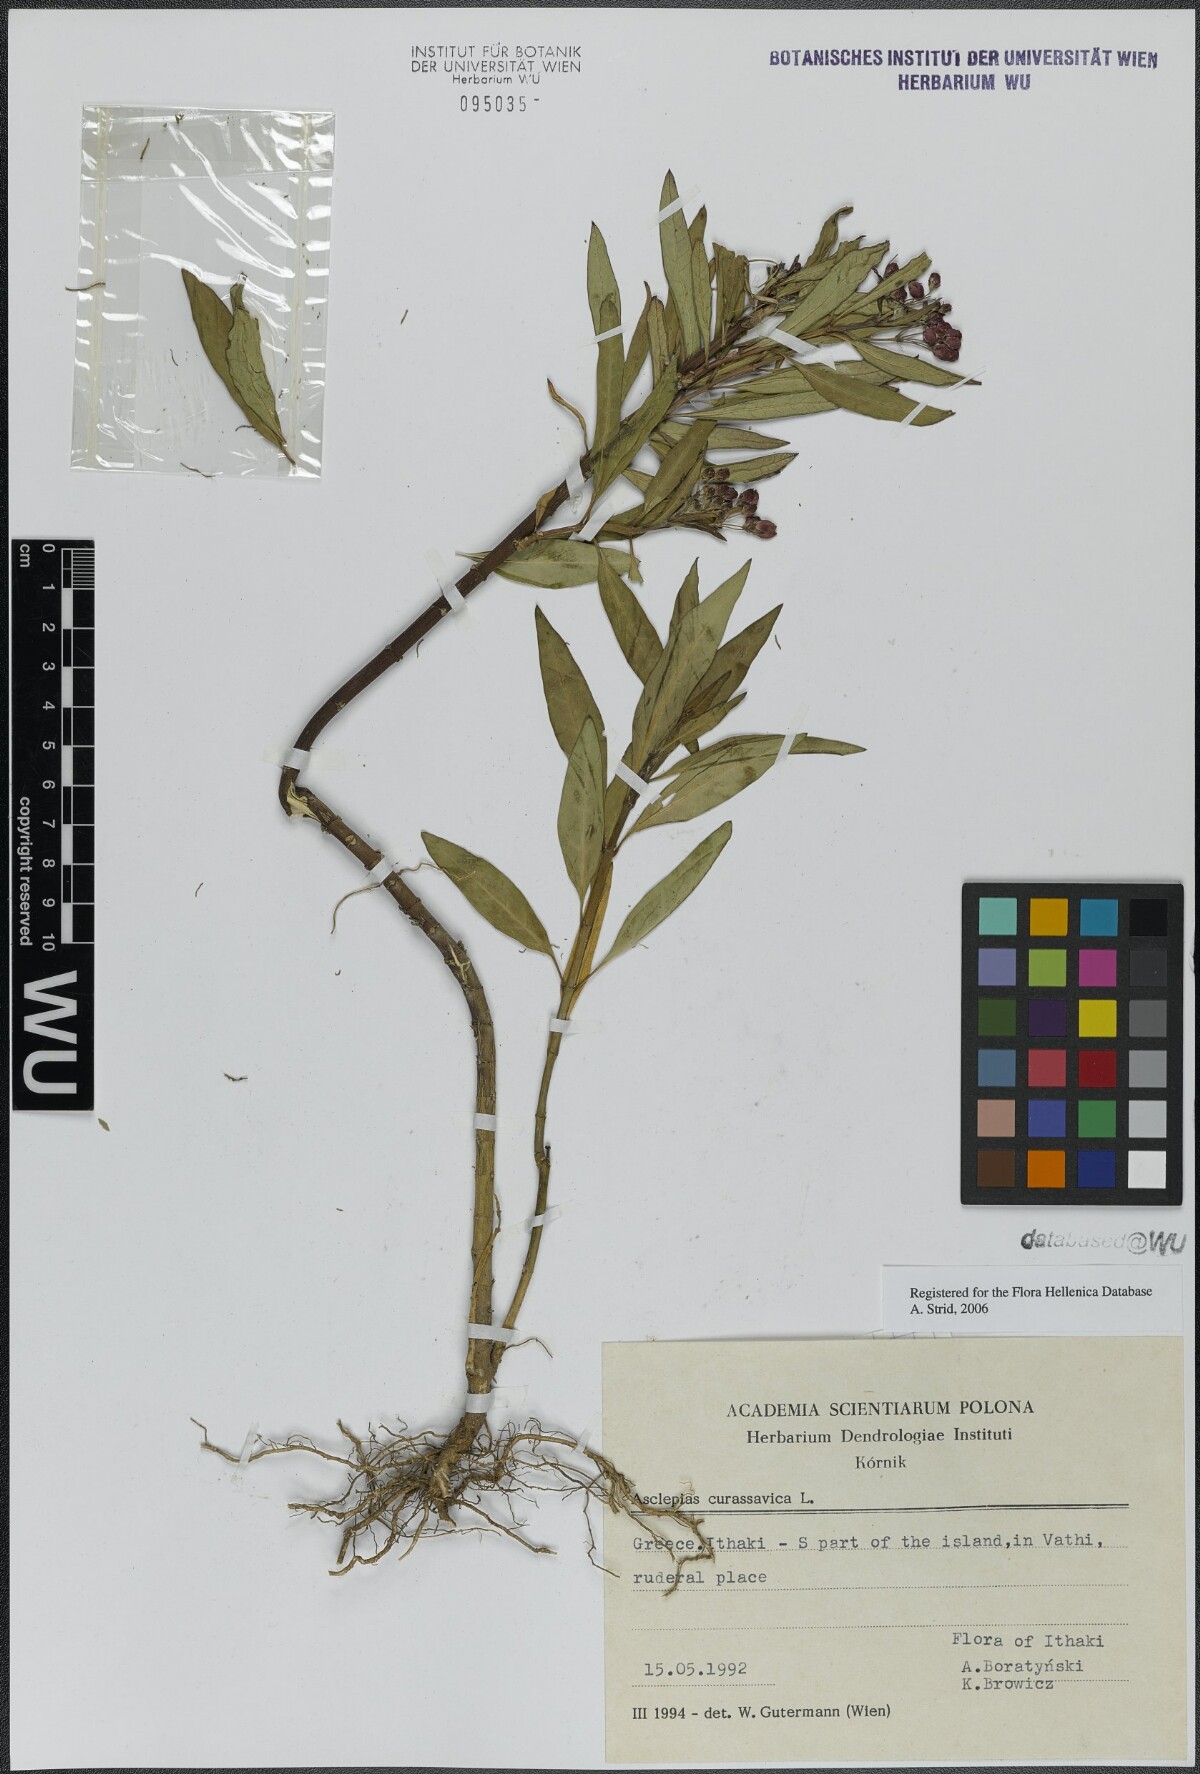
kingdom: Plantae
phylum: Tracheophyta
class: Magnoliopsida
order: Gentianales
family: Apocynaceae
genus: Asclepias
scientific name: Asclepias curassavica
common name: Bloodflower
